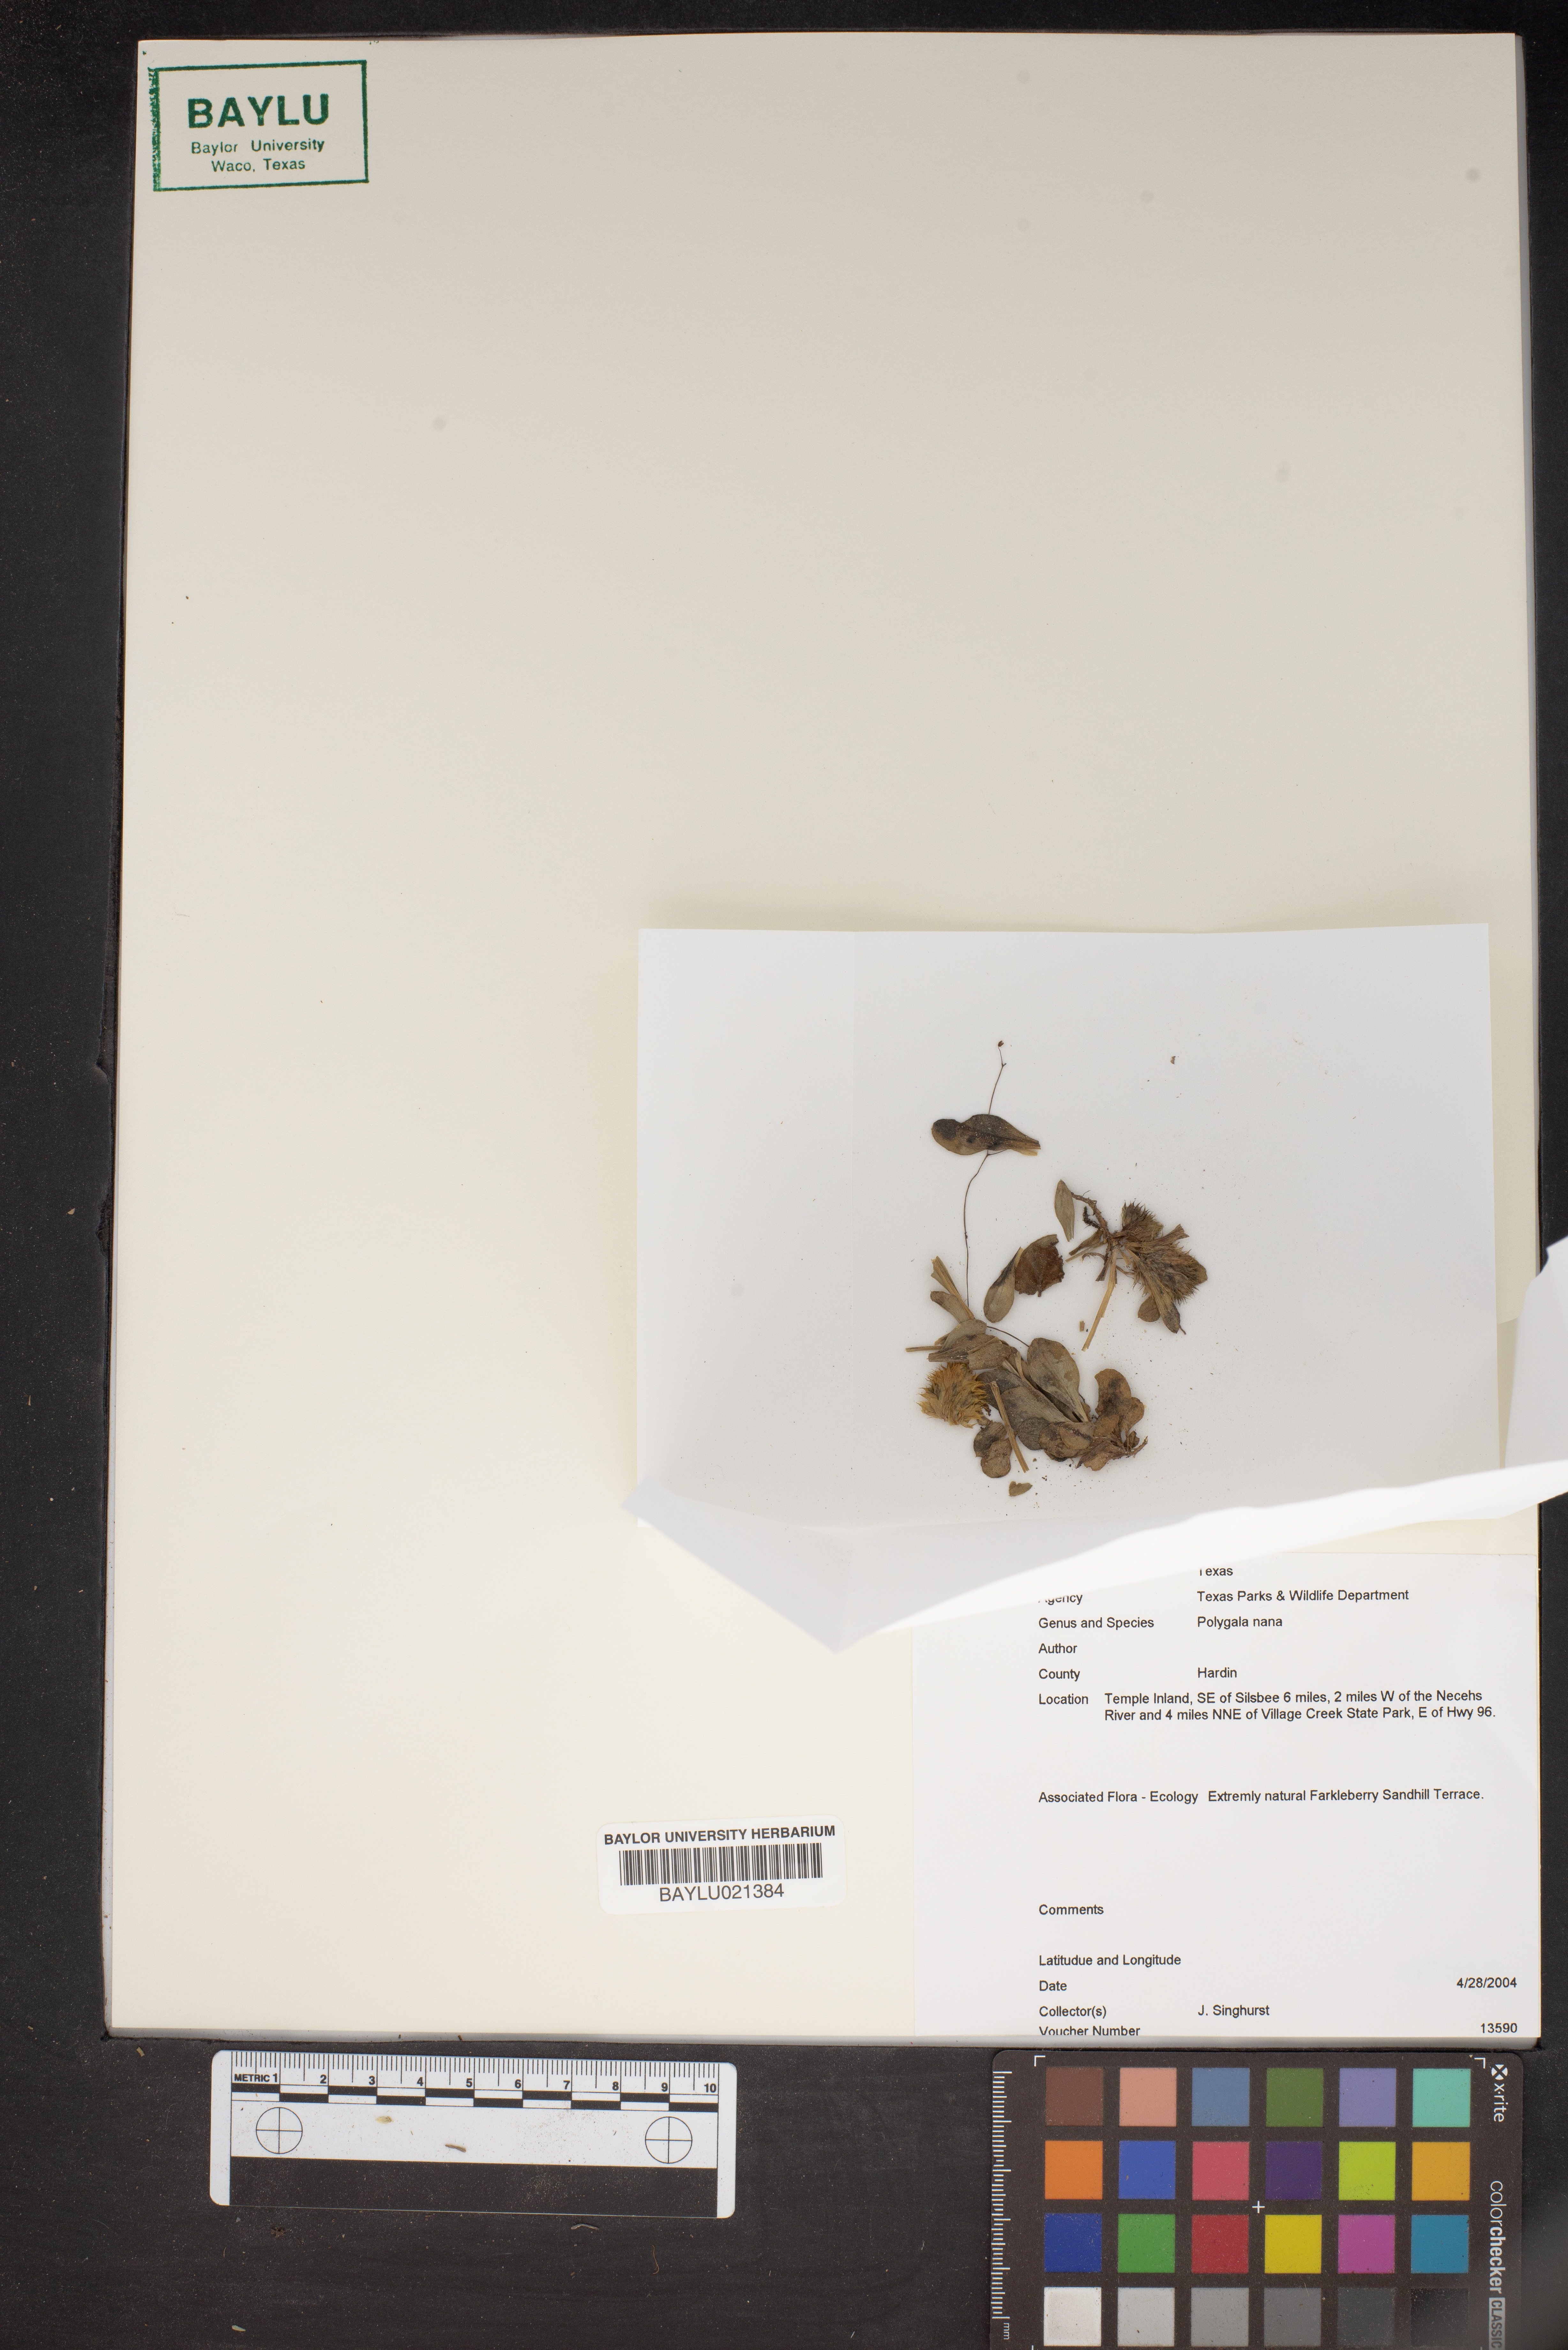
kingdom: Plantae
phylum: Tracheophyta
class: Magnoliopsida
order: Fabales
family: Polygalaceae
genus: Polygala
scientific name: Polygala nana
